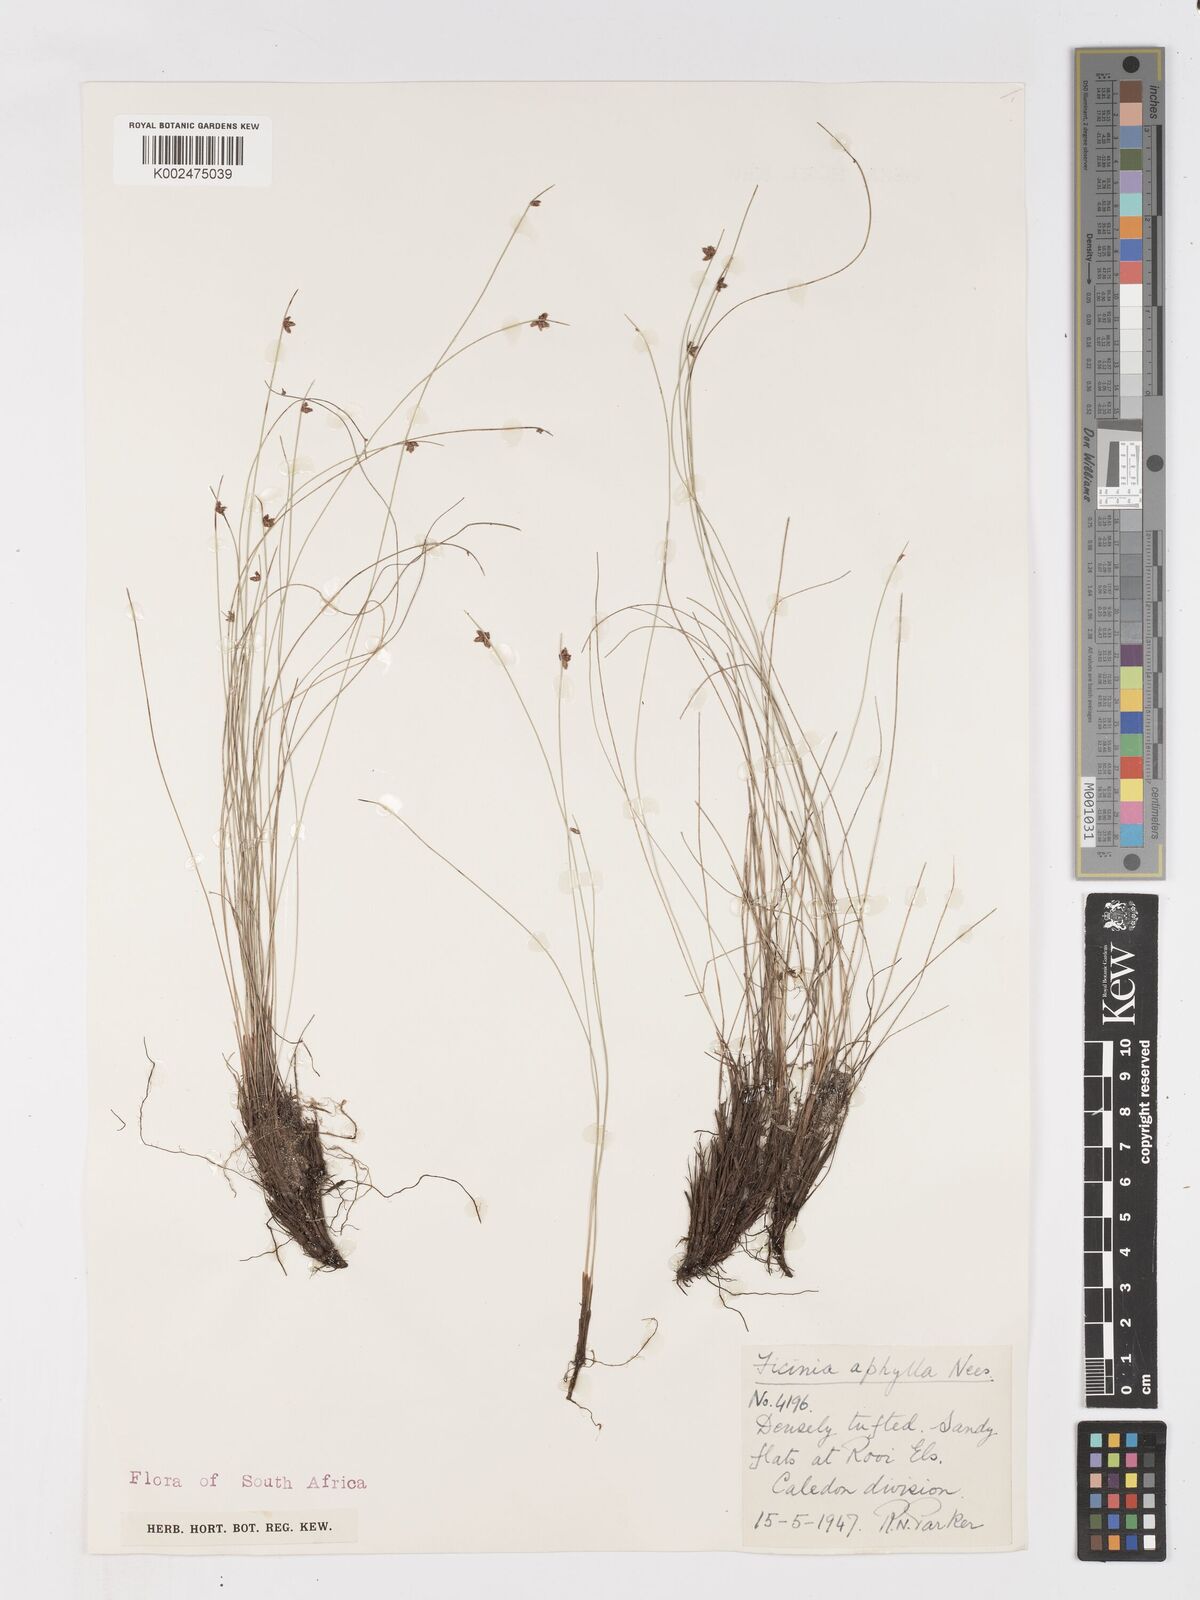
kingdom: Plantae
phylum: Tracheophyta
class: Liliopsida
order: Poales
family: Cyperaceae
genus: Ficinia
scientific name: Ficinia lateralis
